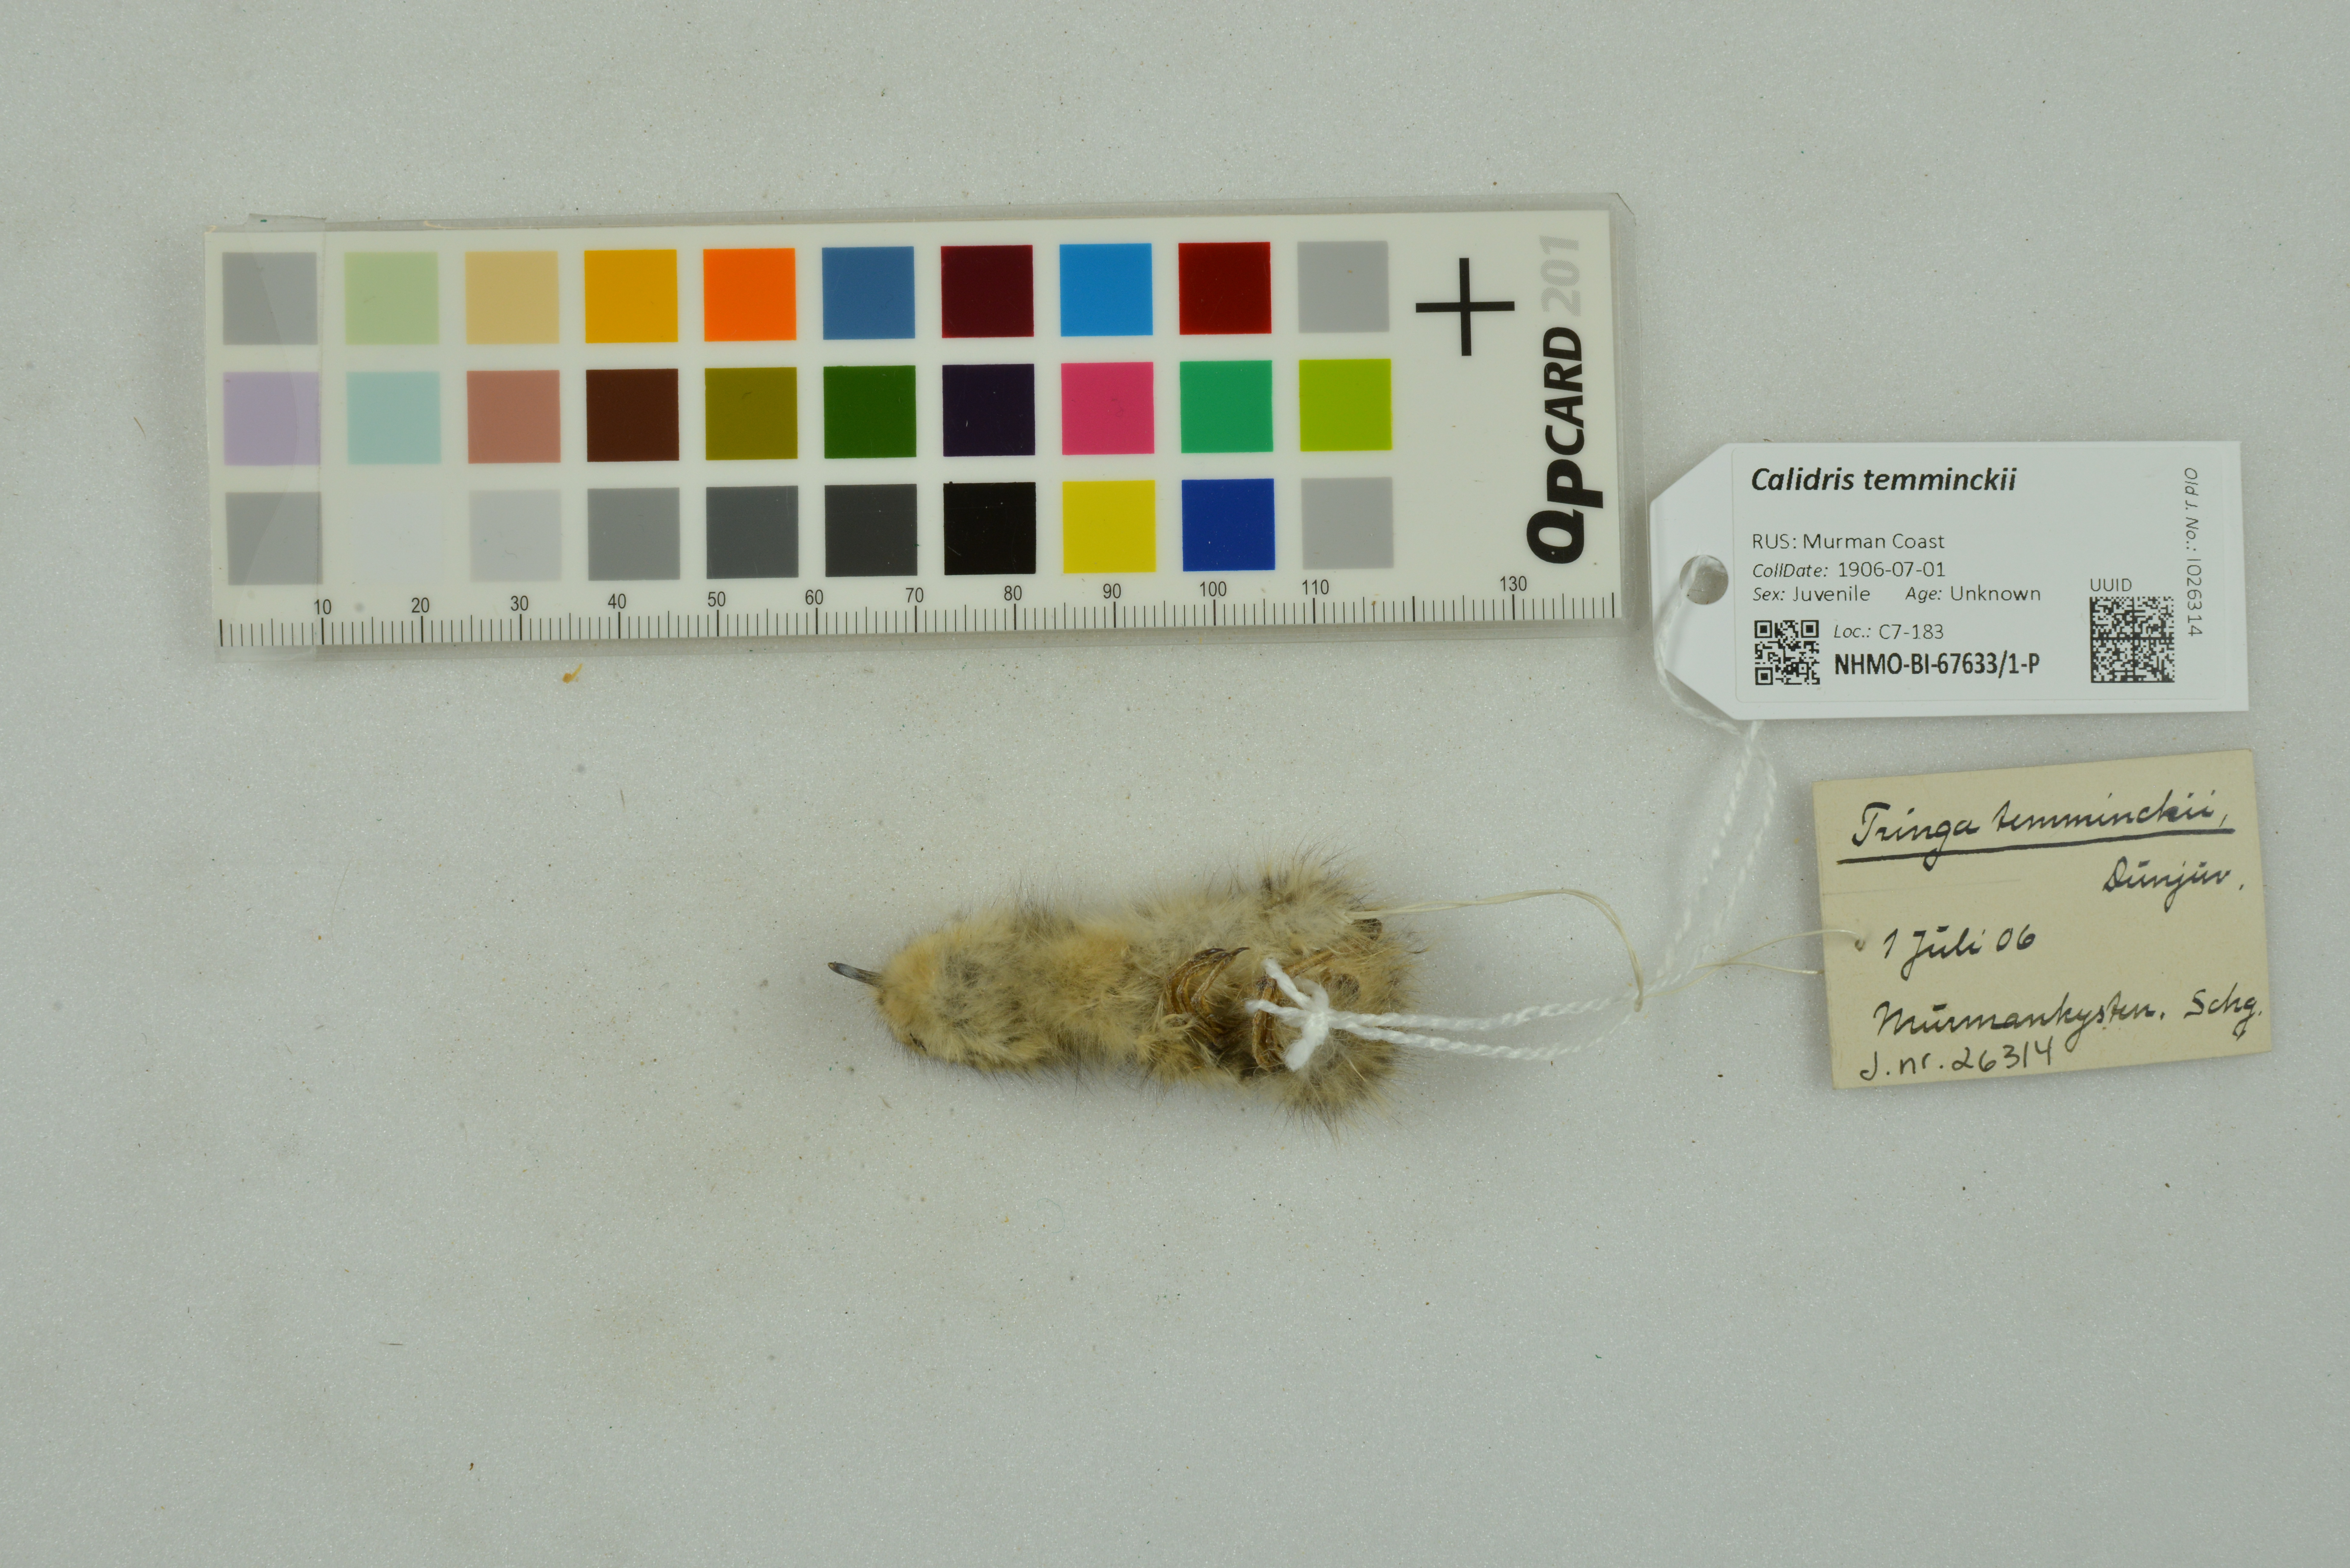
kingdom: Animalia
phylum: Chordata
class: Aves
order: Charadriiformes
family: Scolopacidae
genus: Calidris
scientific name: Calidris temminckii
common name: Temminck's stint
